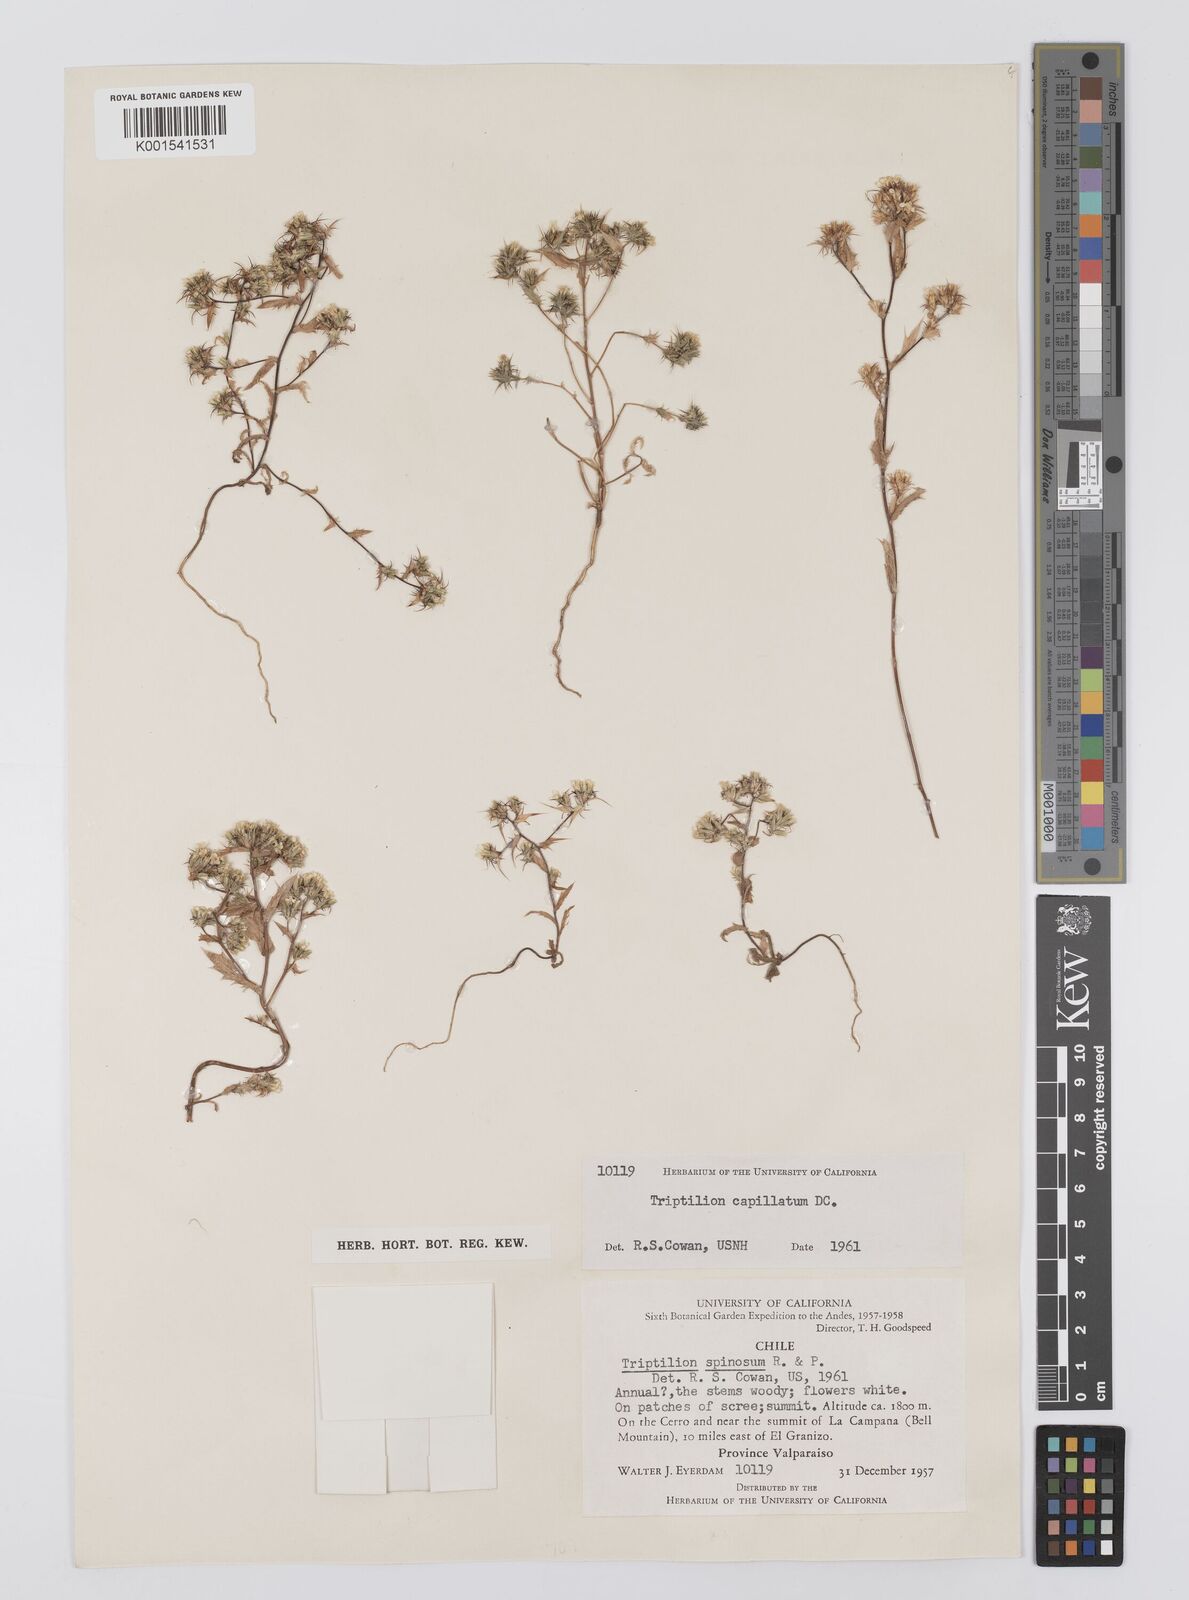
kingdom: Plantae
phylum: Tracheophyta
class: Magnoliopsida
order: Asterales
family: Asteraceae
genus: Triptilion
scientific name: Triptilion capillatum
